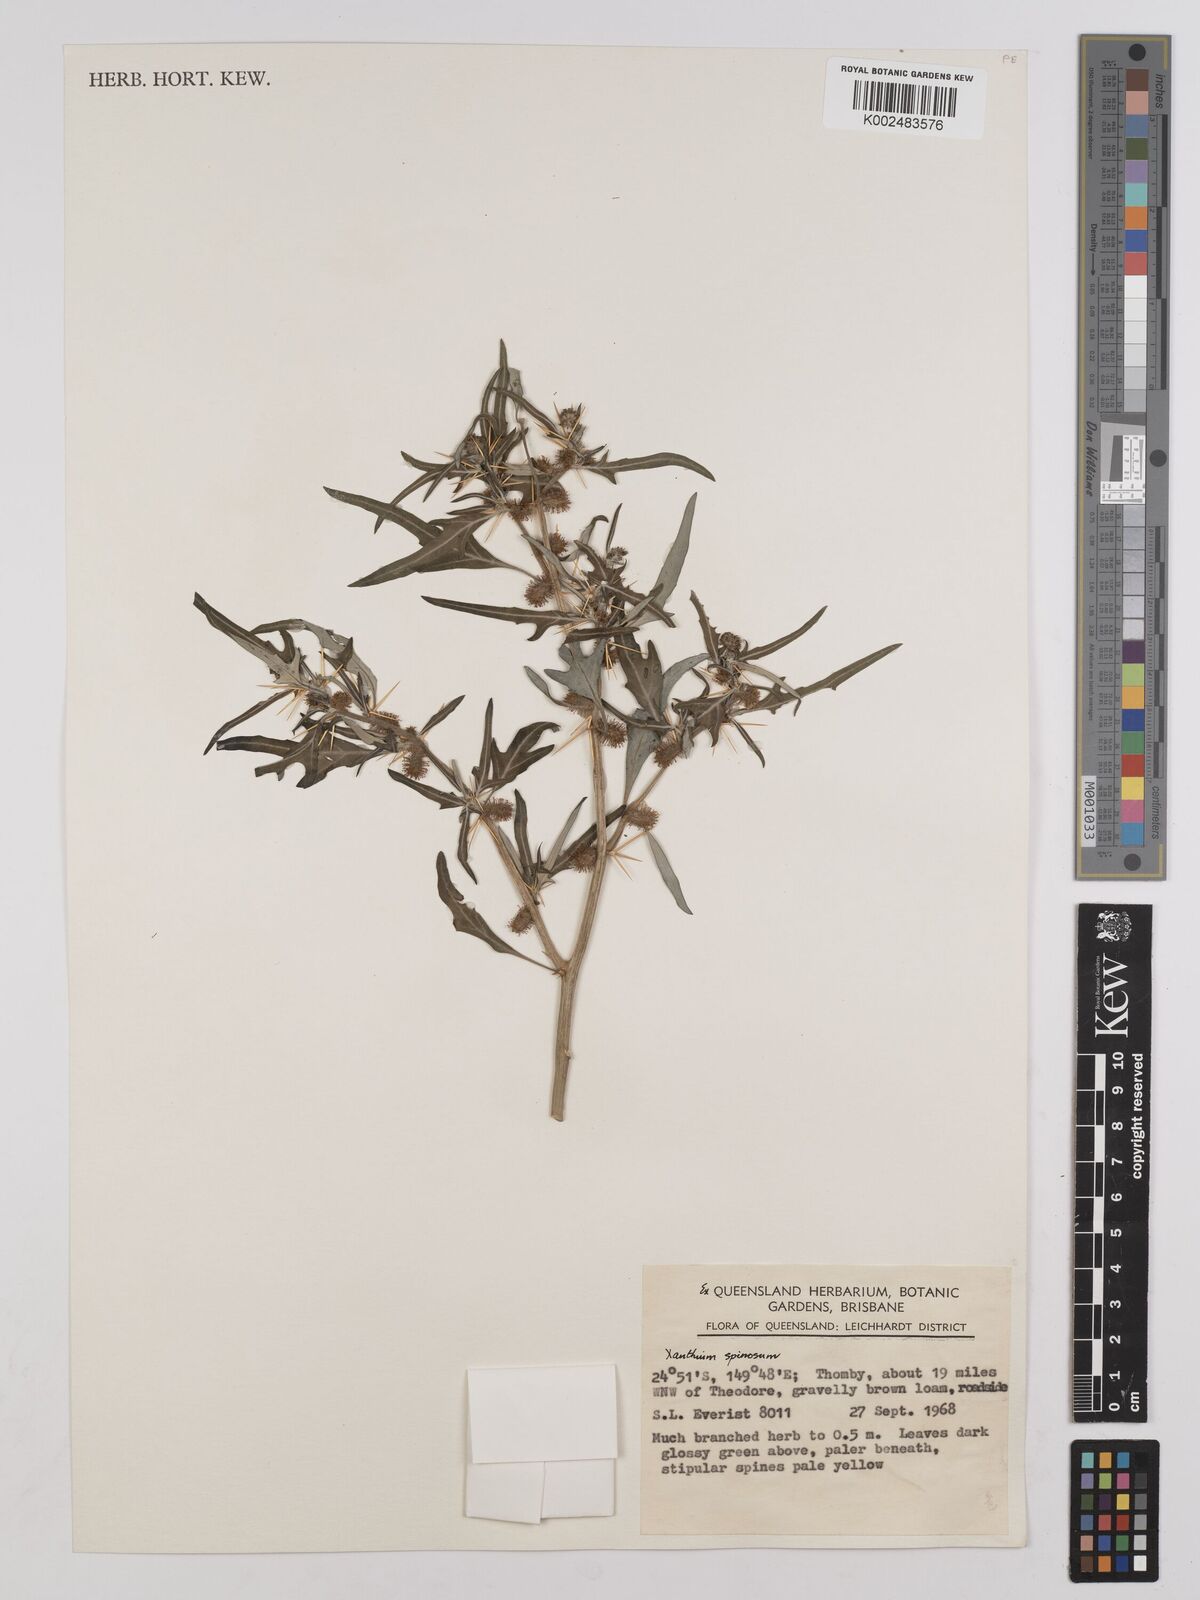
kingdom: Plantae
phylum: Tracheophyta
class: Magnoliopsida
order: Asterales
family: Asteraceae
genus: Xanthium
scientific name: Xanthium spinosum
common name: Spiny cocklebur
